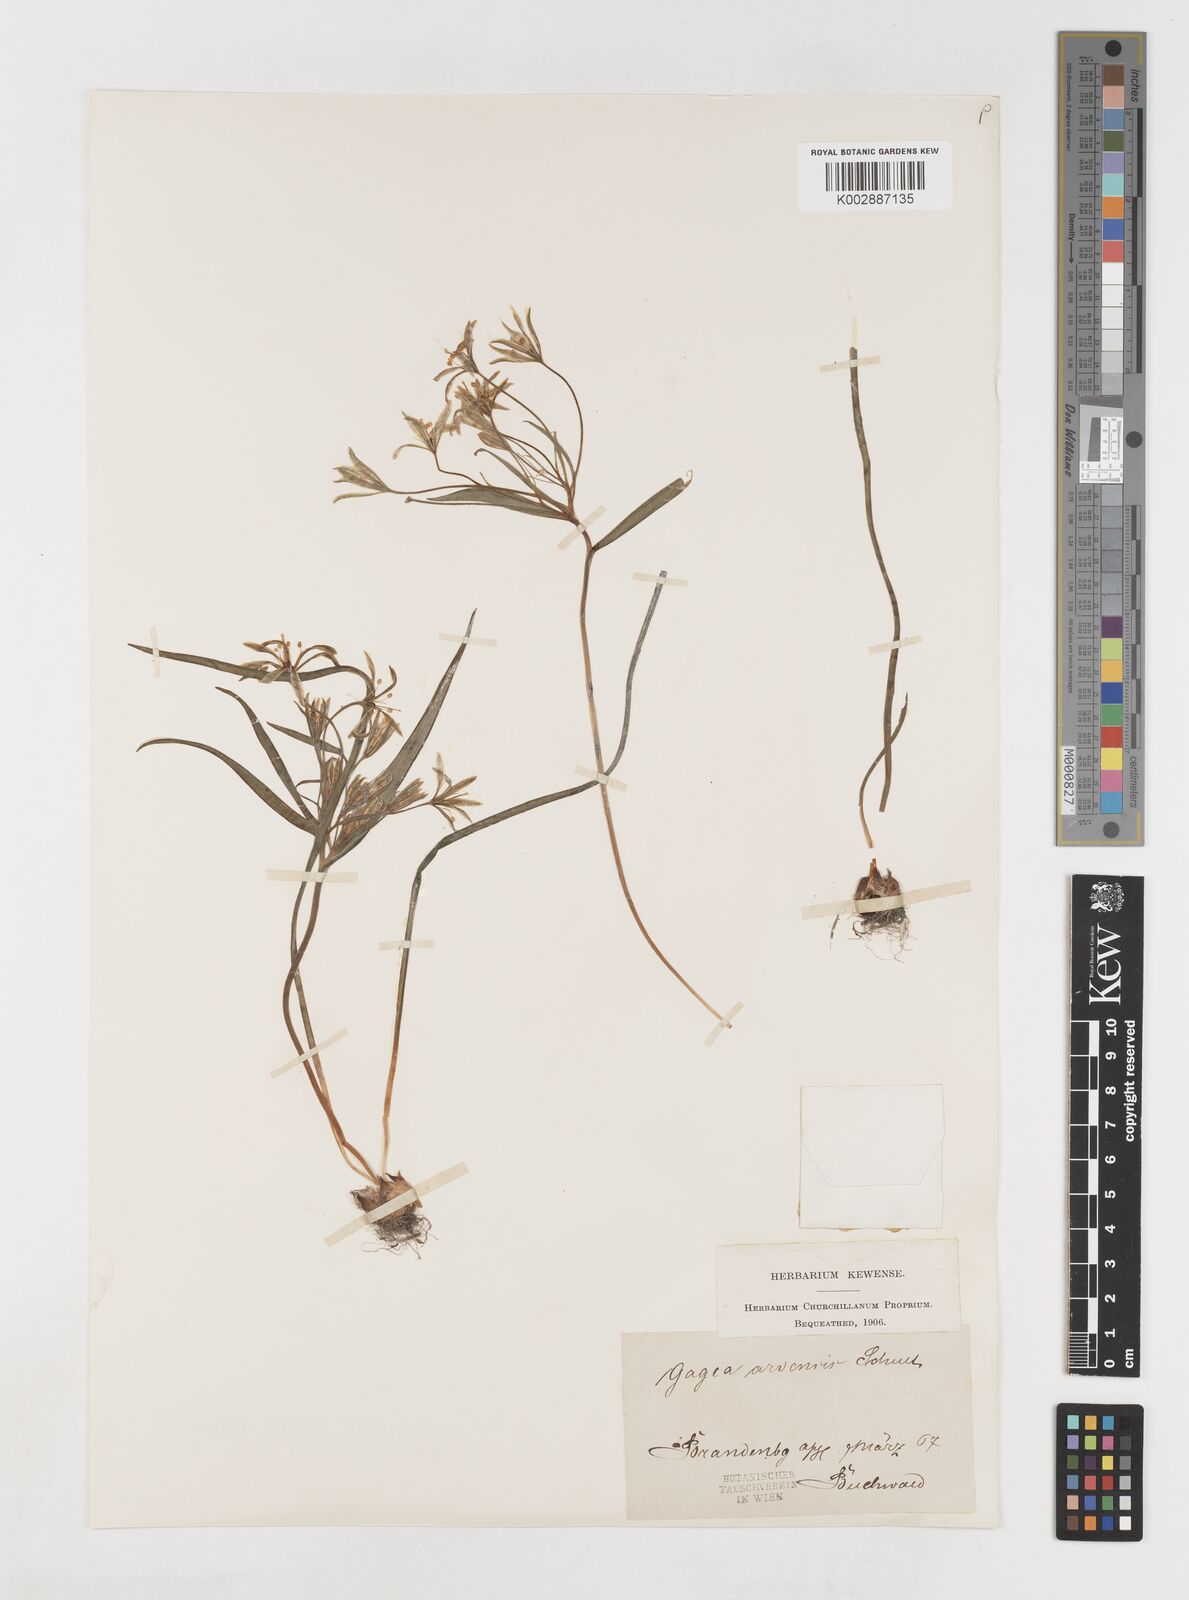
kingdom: Plantae
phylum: Tracheophyta
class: Liliopsida
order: Liliales
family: Liliaceae
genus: Gagea
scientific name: Gagea minima
